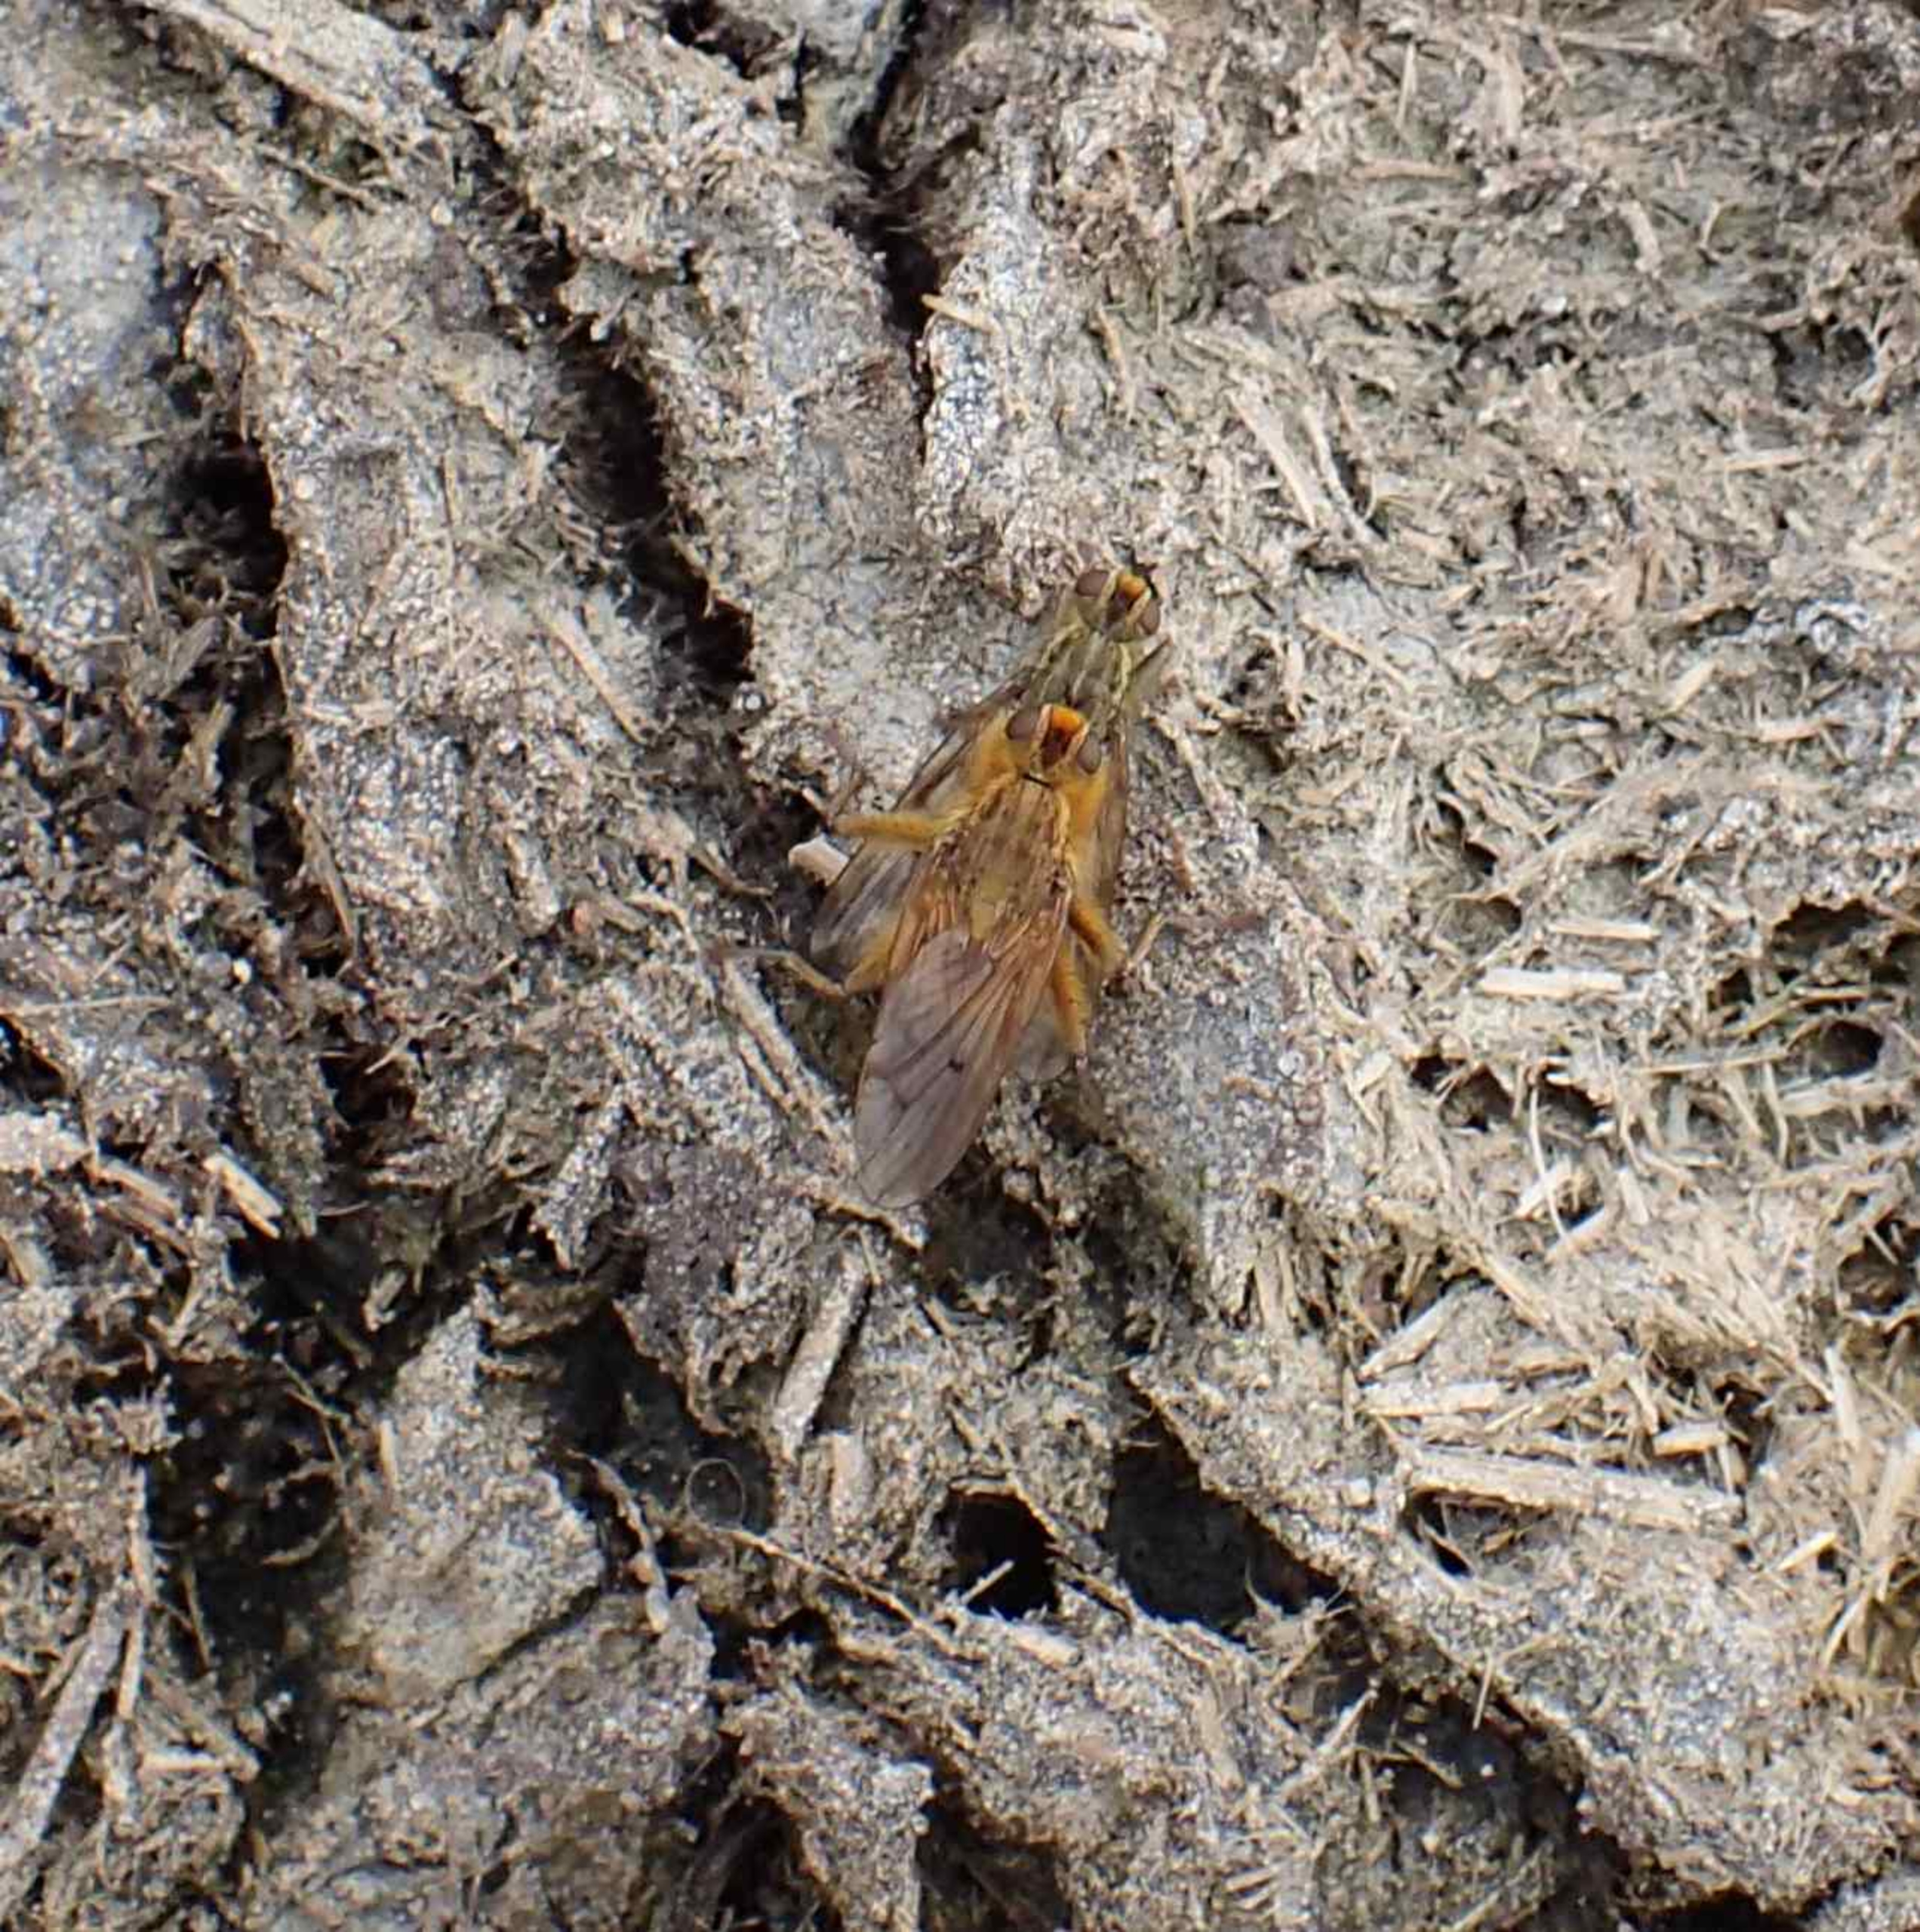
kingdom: Animalia
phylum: Arthropoda
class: Insecta
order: Diptera
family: Scathophagidae
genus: Scathophaga
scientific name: Scathophaga stercoraria
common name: Almindelig gødningsflue
